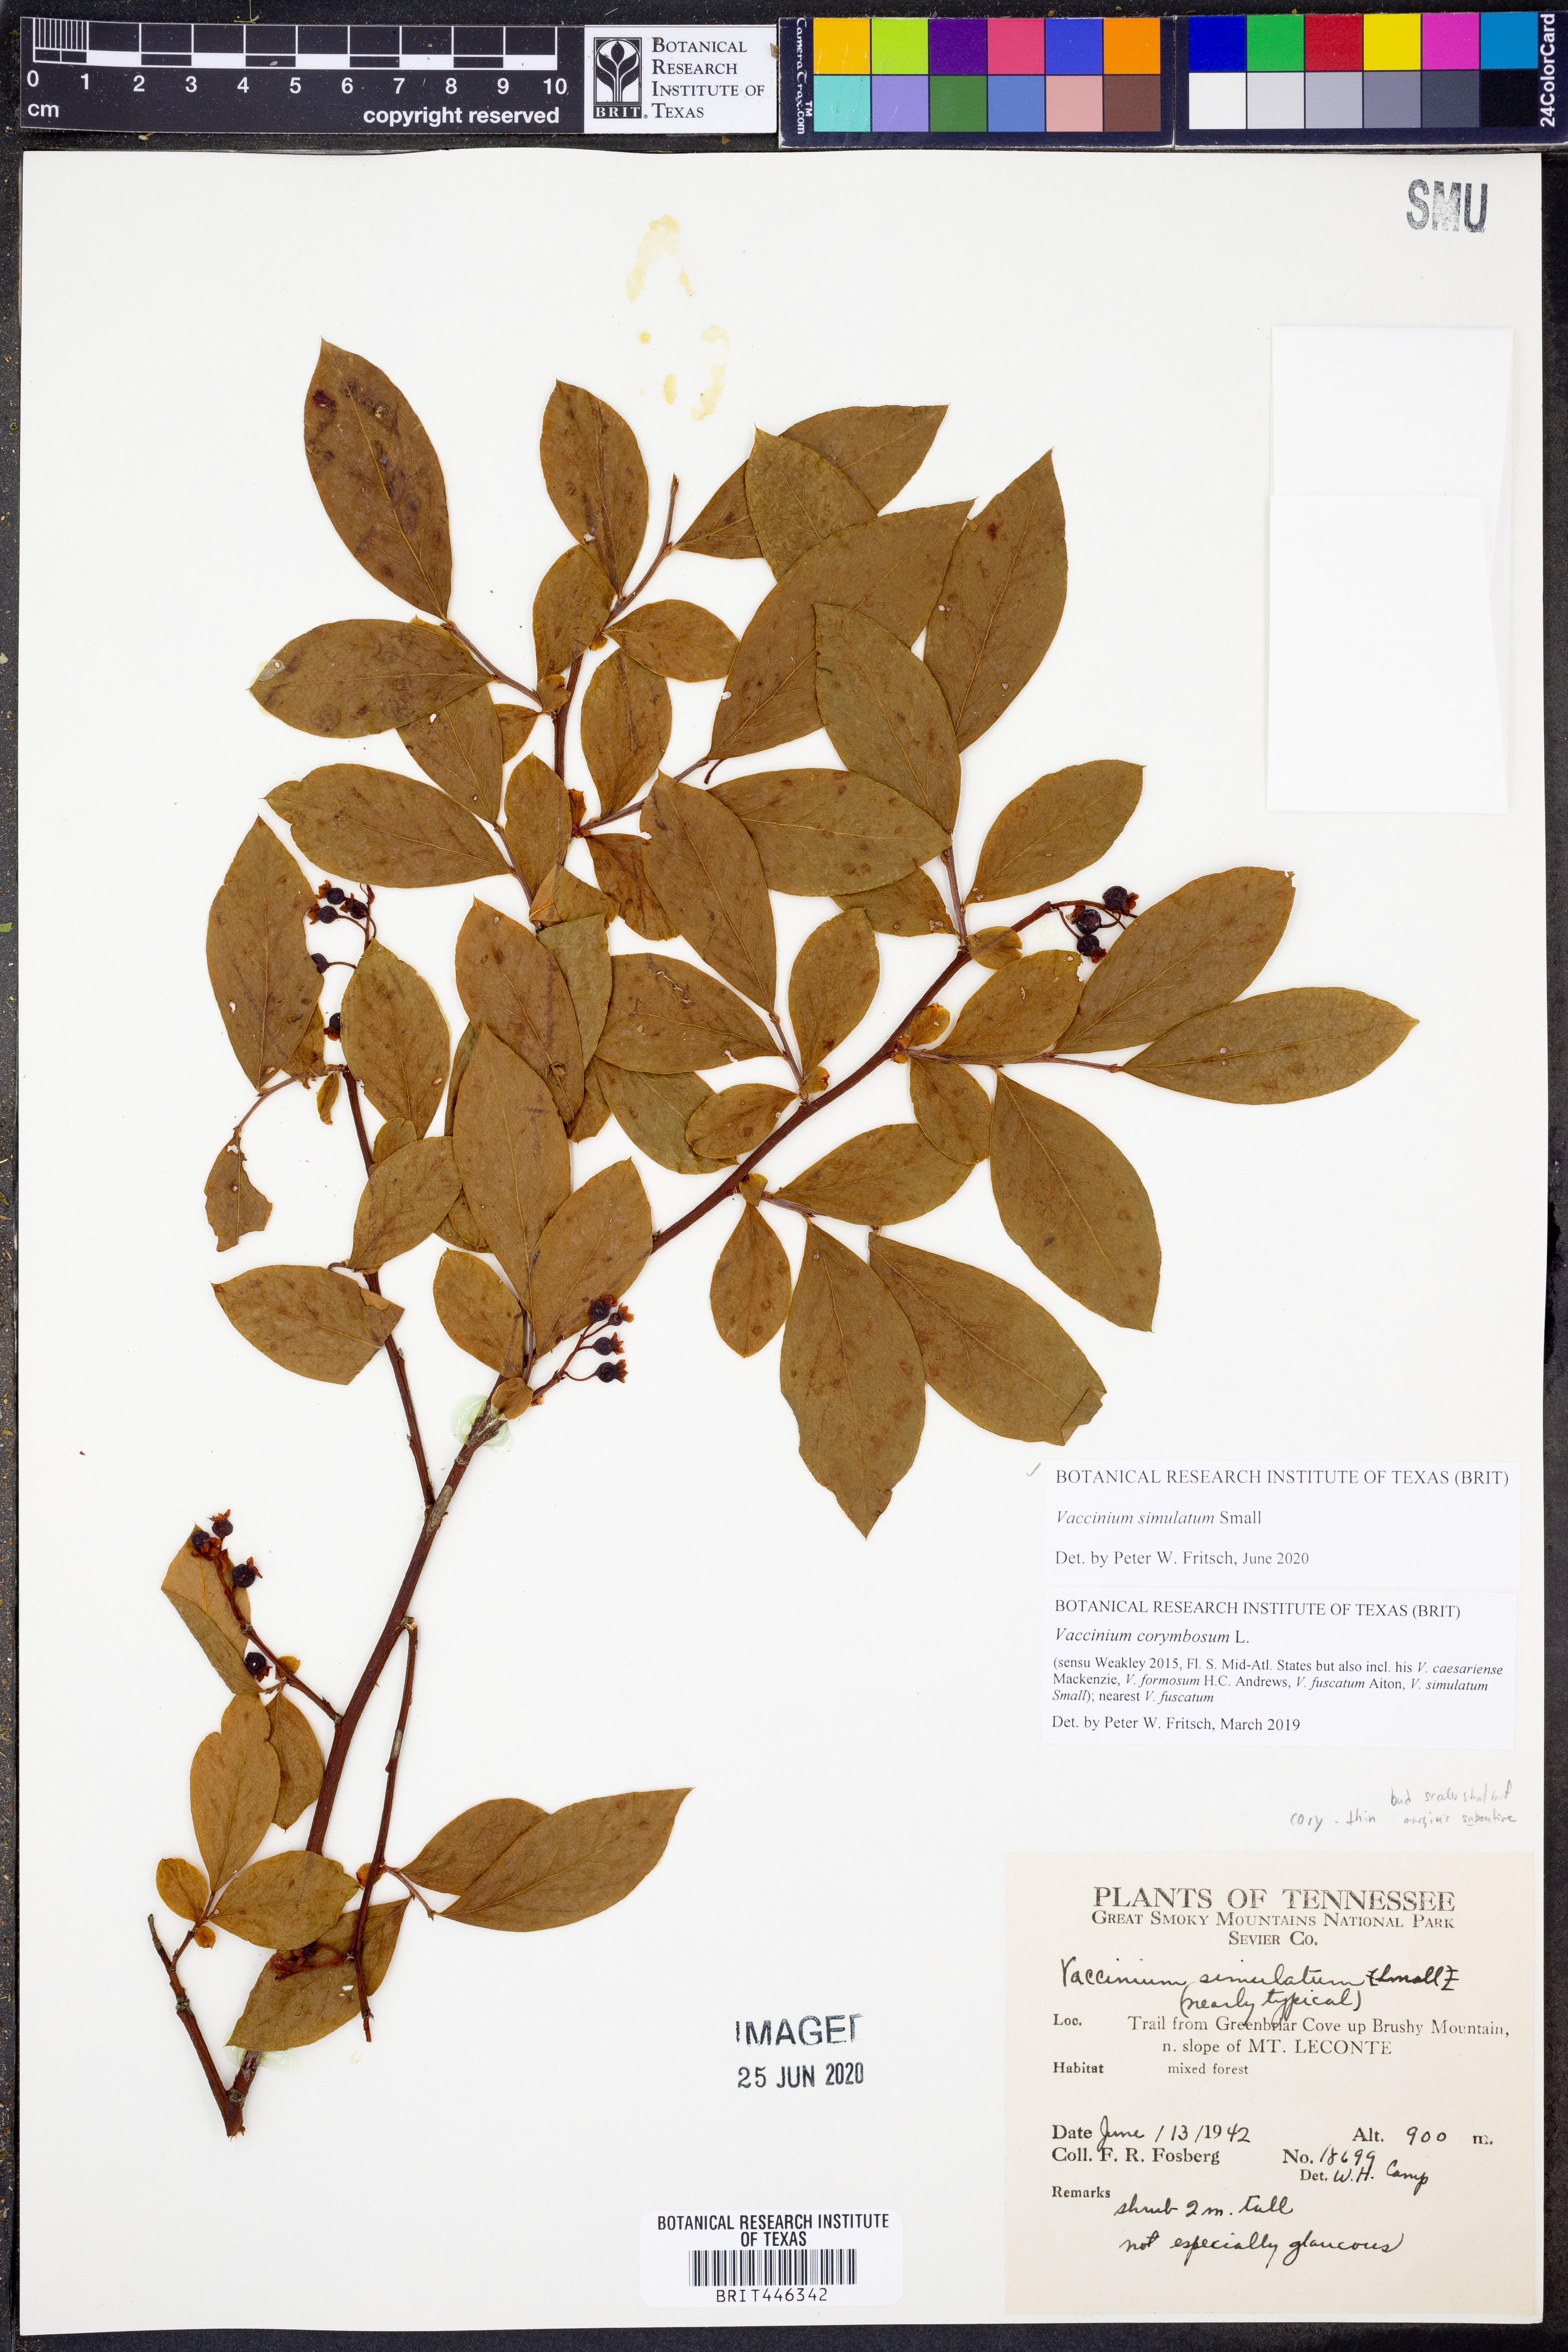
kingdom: Plantae
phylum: Tracheophyta
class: Magnoliopsida
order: Ericales
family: Ericaceae
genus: Vaccinium
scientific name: Vaccinium corymbosum
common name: Blueberry
